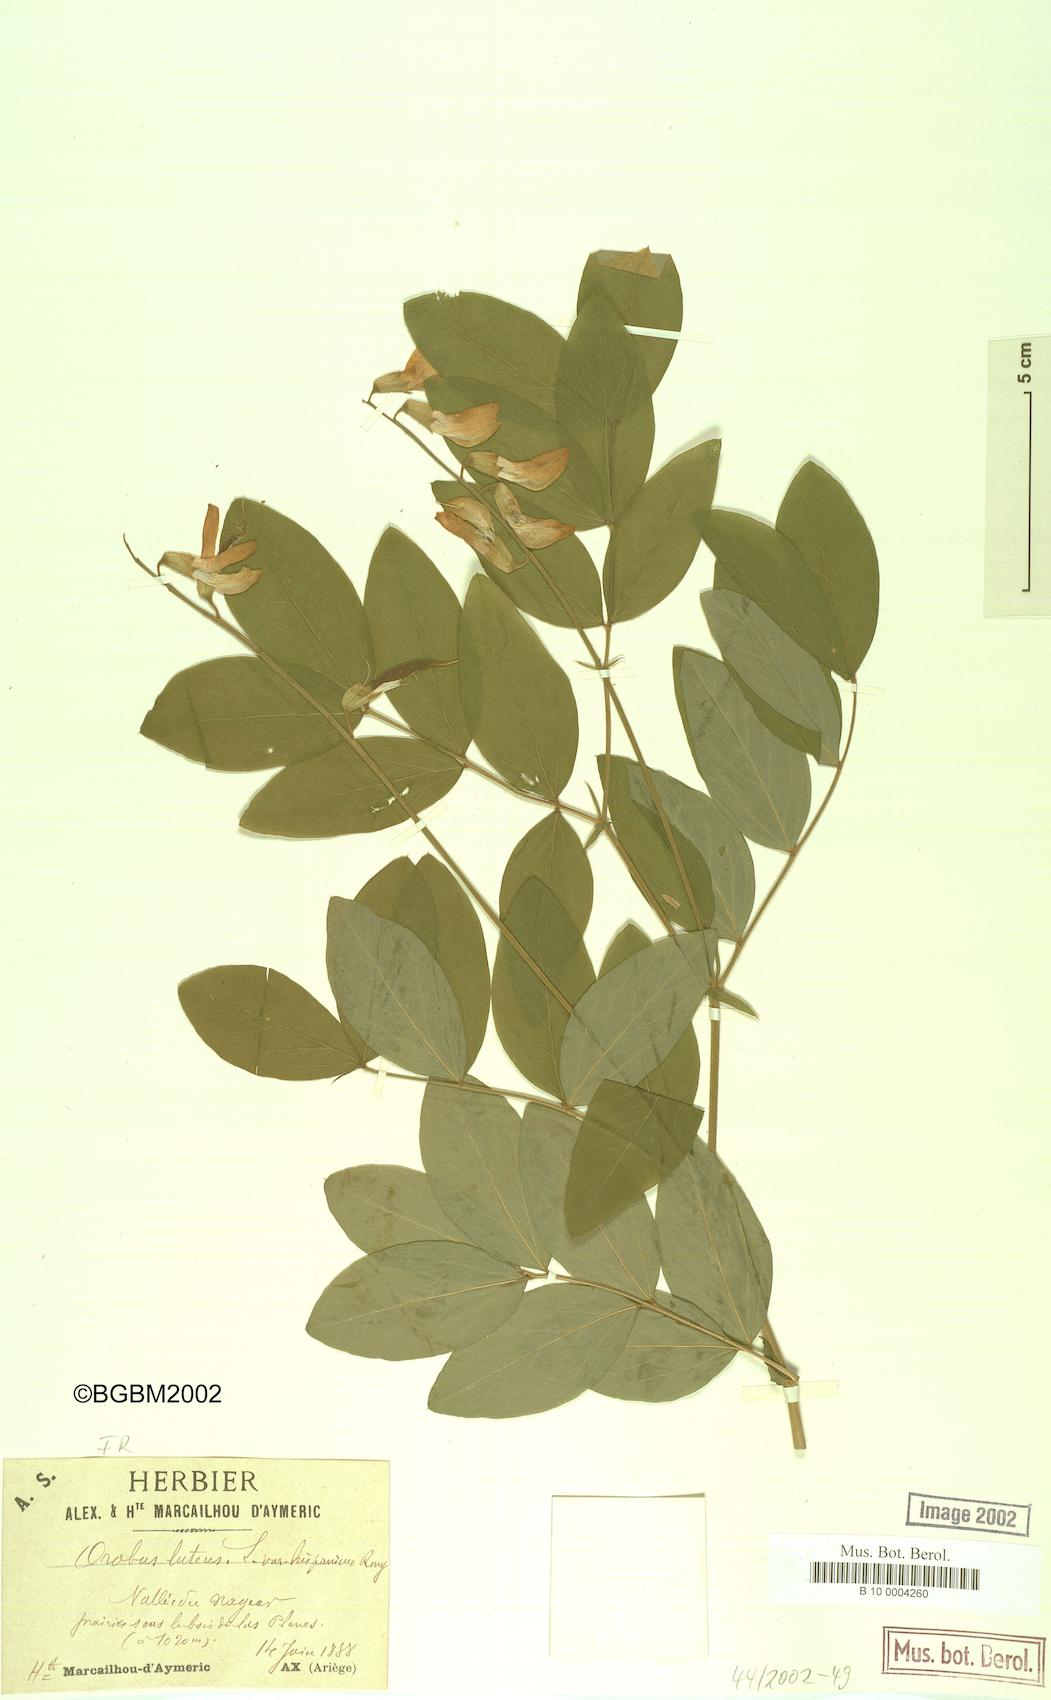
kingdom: Plantae
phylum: Tracheophyta
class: Magnoliopsida
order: Fabales
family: Fabaceae
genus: Lathyrus
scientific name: Lathyrus gmelinii
